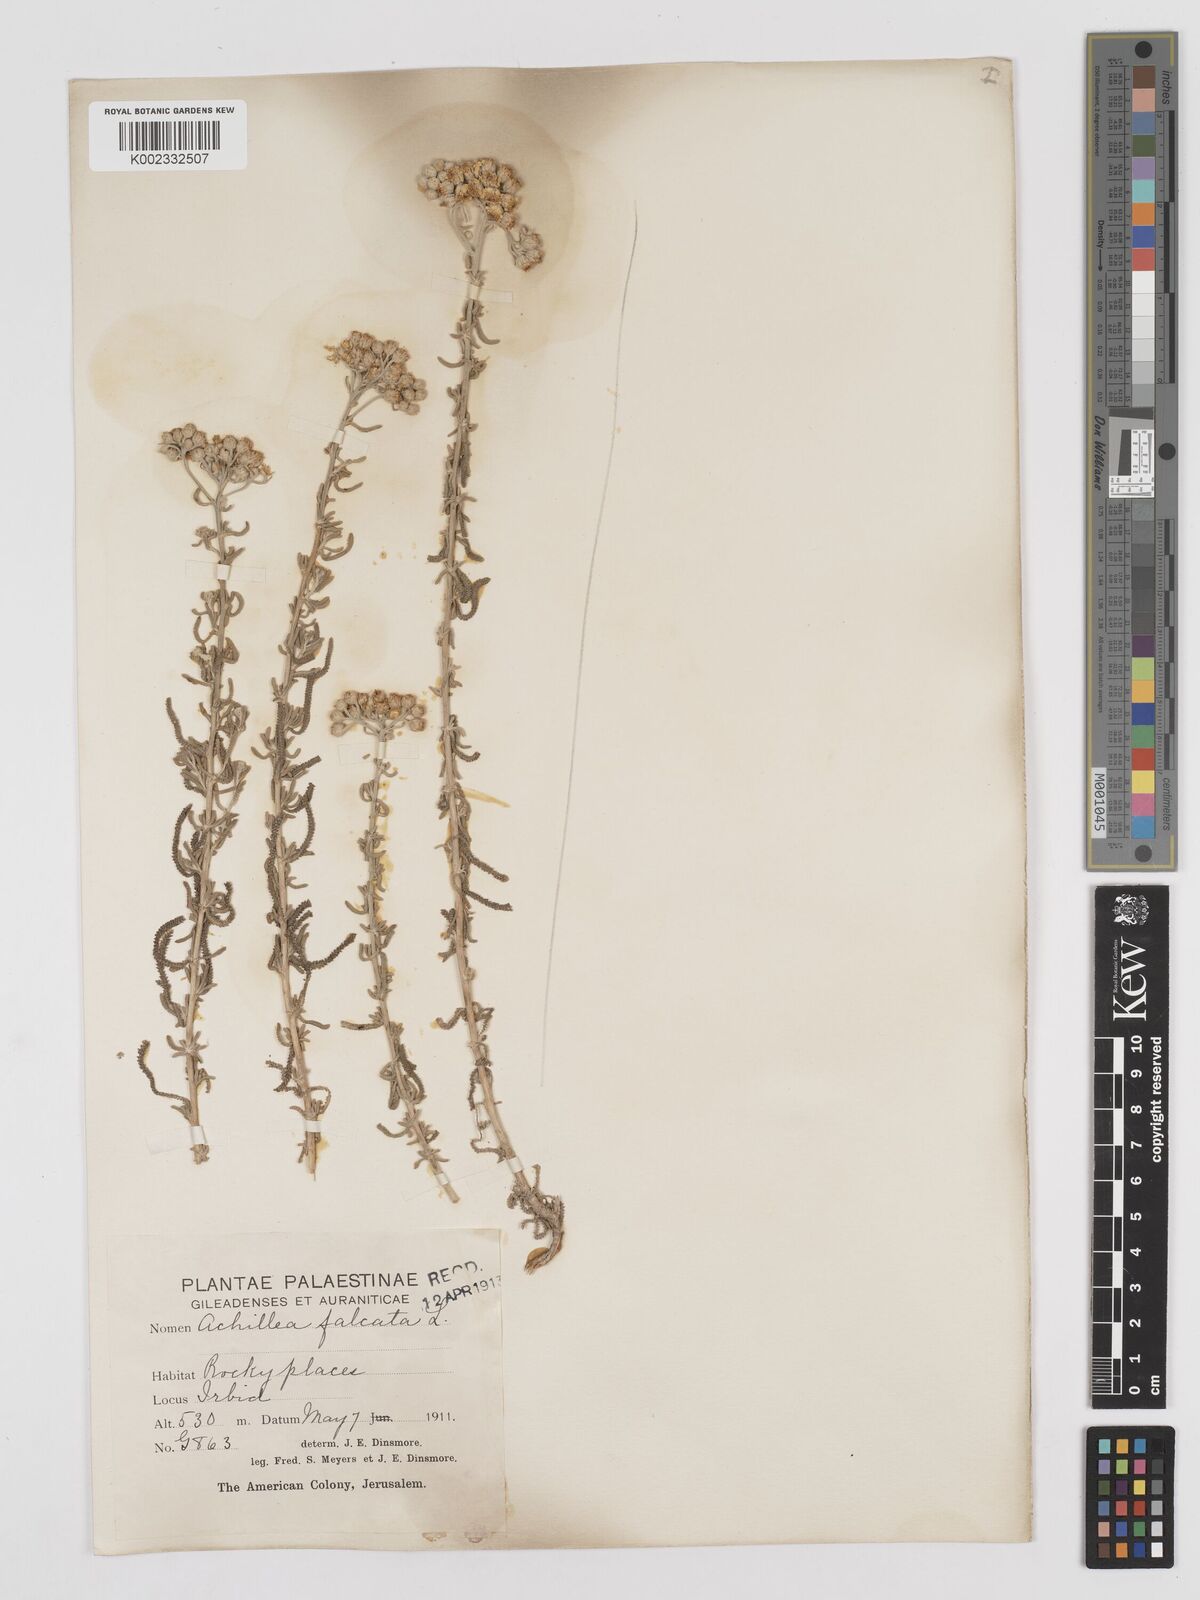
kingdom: Plantae
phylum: Tracheophyta
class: Magnoliopsida
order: Asterales
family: Asteraceae
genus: Achillea
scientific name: Achillea tenuifolia
